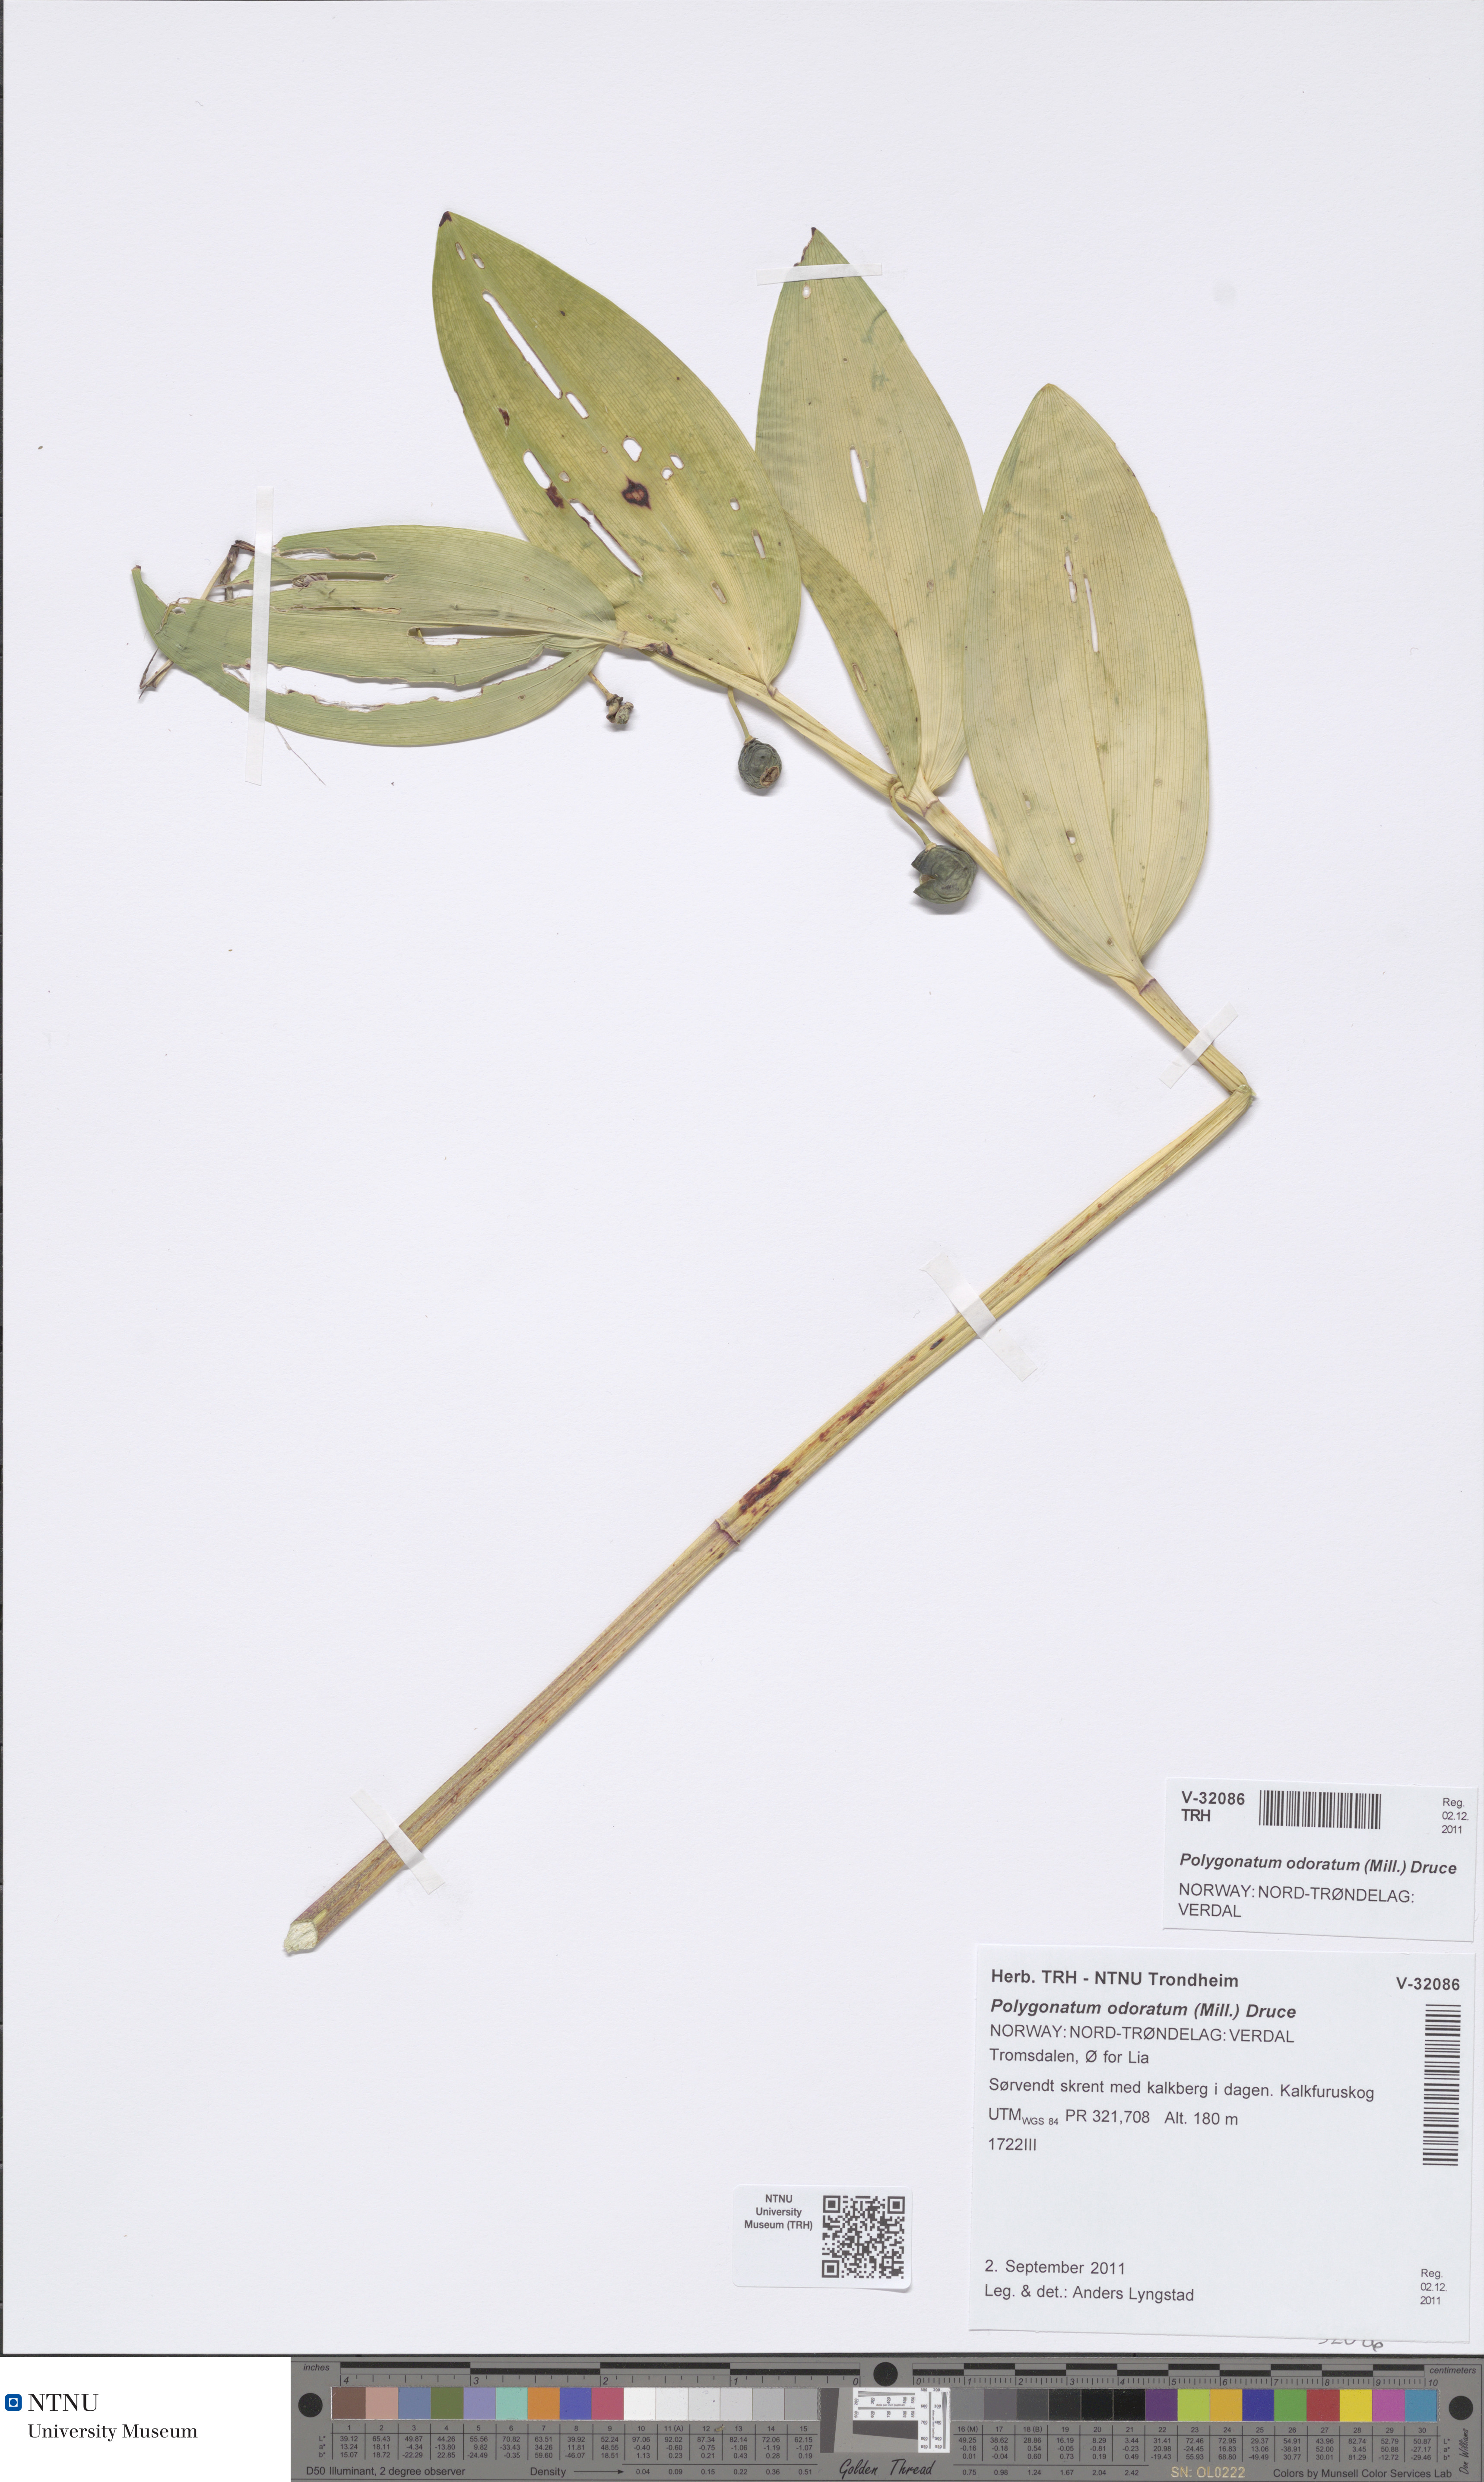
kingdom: Plantae
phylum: Tracheophyta
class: Liliopsida
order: Asparagales
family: Asparagaceae
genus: Polygonatum
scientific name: Polygonatum odoratum
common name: Angular solomon's-seal
